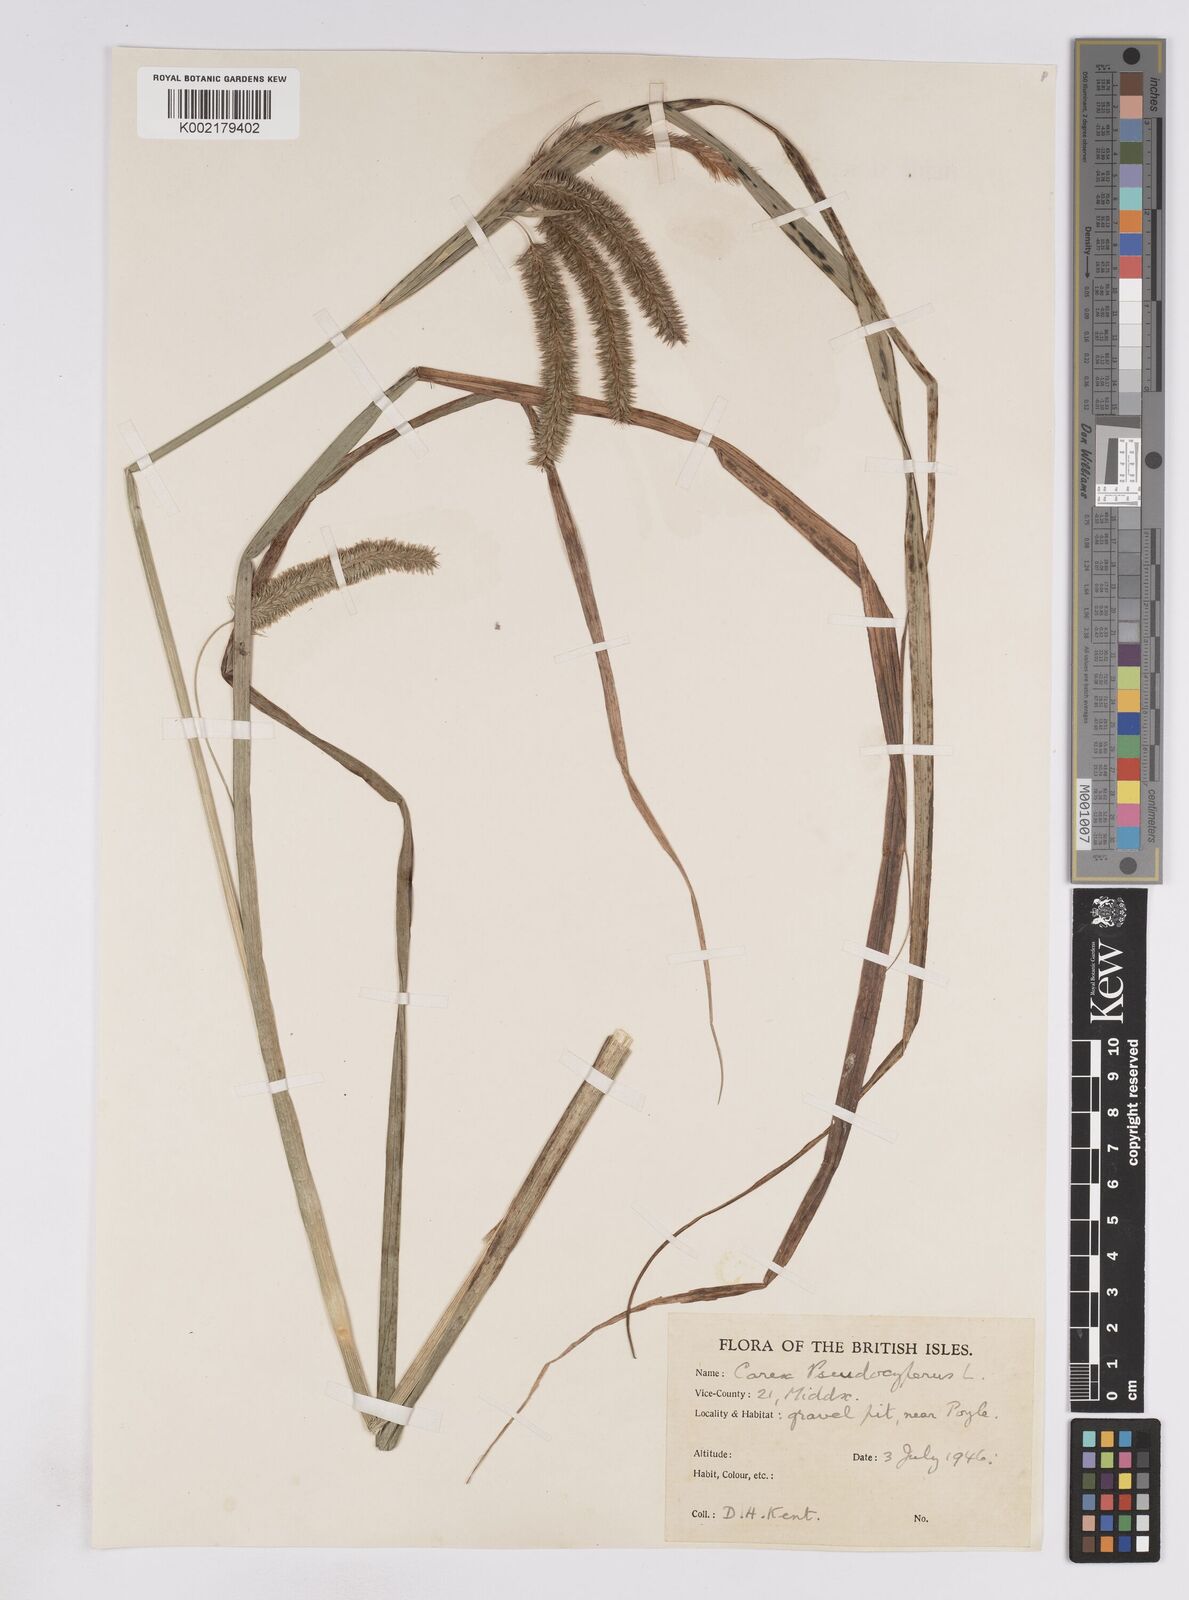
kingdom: Plantae
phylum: Tracheophyta
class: Liliopsida
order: Poales
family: Cyperaceae
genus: Carex
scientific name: Carex pseudocyperus
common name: Cyperus sedge
